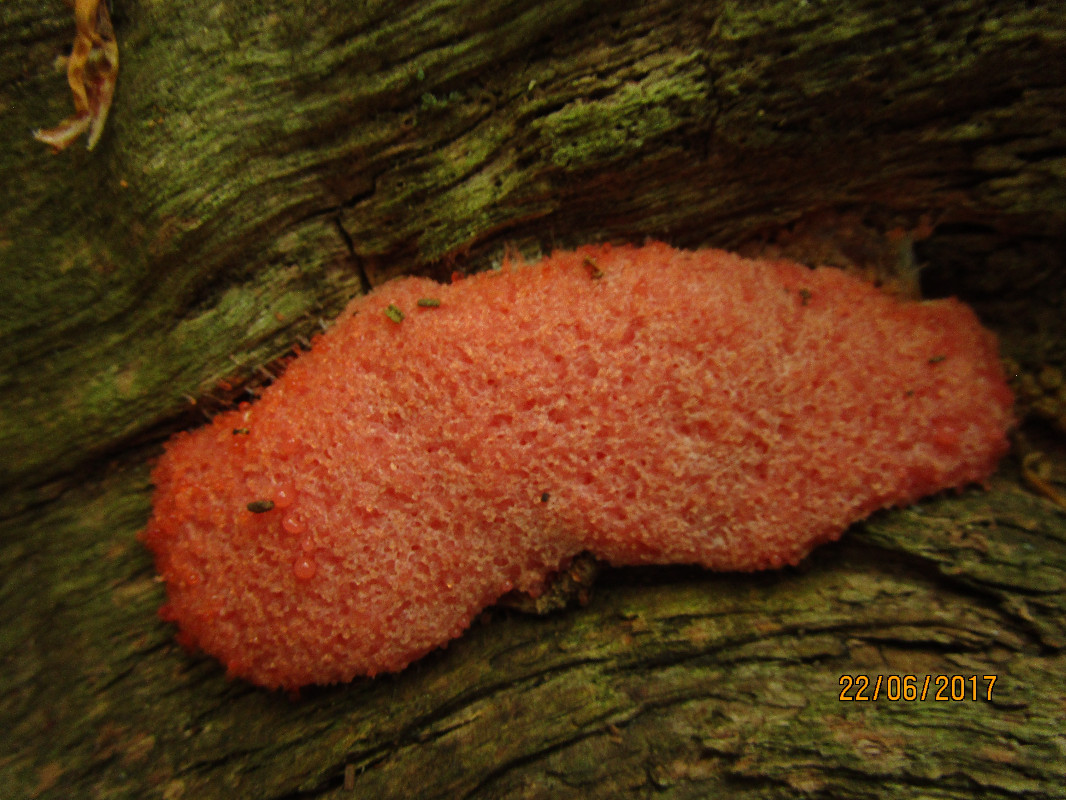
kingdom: Protozoa
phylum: Mycetozoa
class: Myxomycetes
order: Cribrariales
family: Tubiferaceae
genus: Tubifera
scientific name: Tubifera ferruginosa
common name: kanel-støvrør
